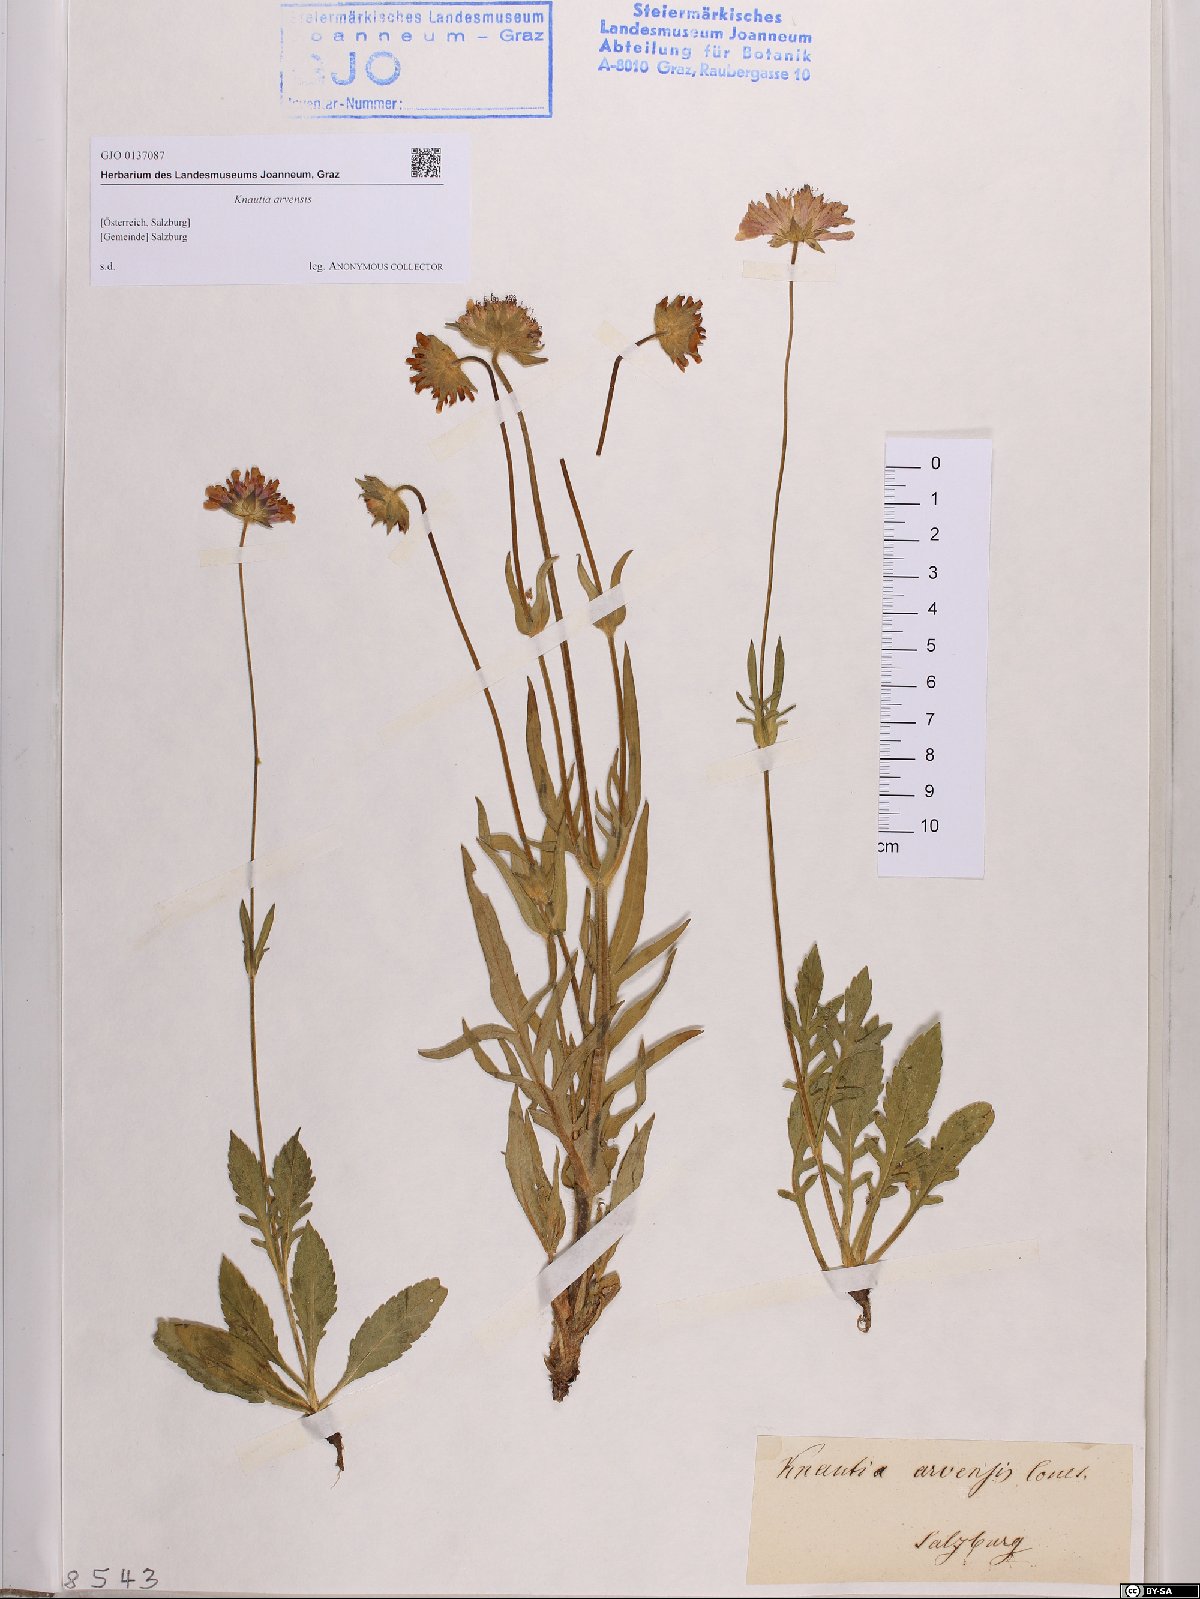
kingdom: Plantae
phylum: Tracheophyta
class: Magnoliopsida
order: Dipsacales
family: Caprifoliaceae
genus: Knautia
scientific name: Knautia arvensis
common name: Field scabiosa
